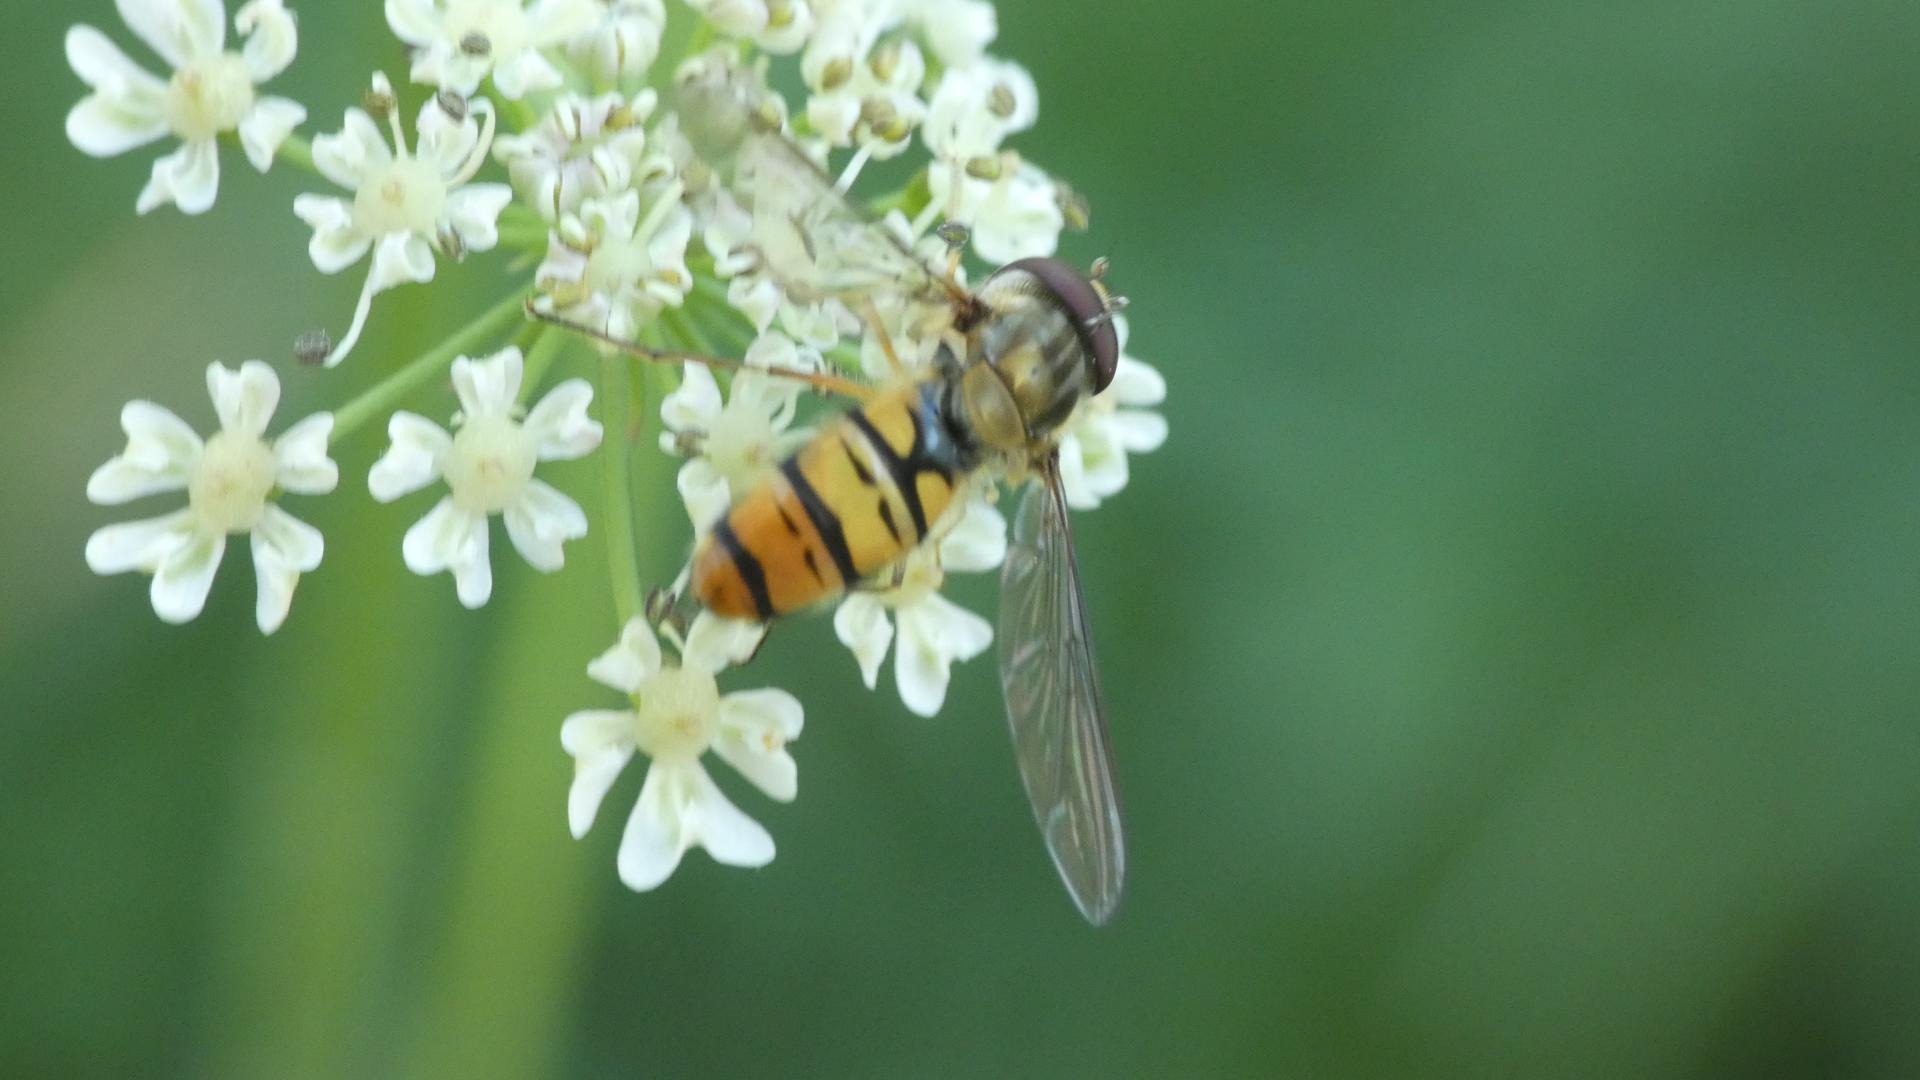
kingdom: Animalia
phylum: Arthropoda
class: Insecta
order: Diptera
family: Syrphidae
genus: Episyrphus
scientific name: Episyrphus balteatus
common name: Dobbeltbåndet svirreflue
